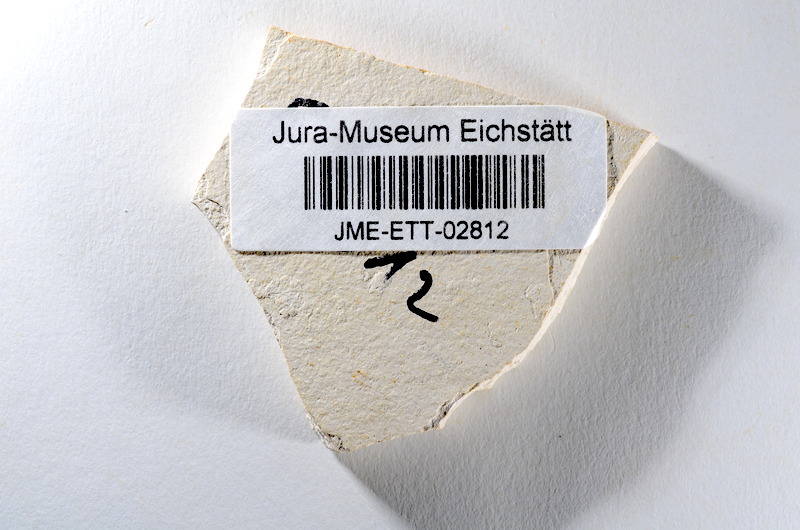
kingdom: Animalia
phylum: Chordata
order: Salmoniformes
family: Orthogonikleithridae
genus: Orthogonikleithrus
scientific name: Orthogonikleithrus hoelli
